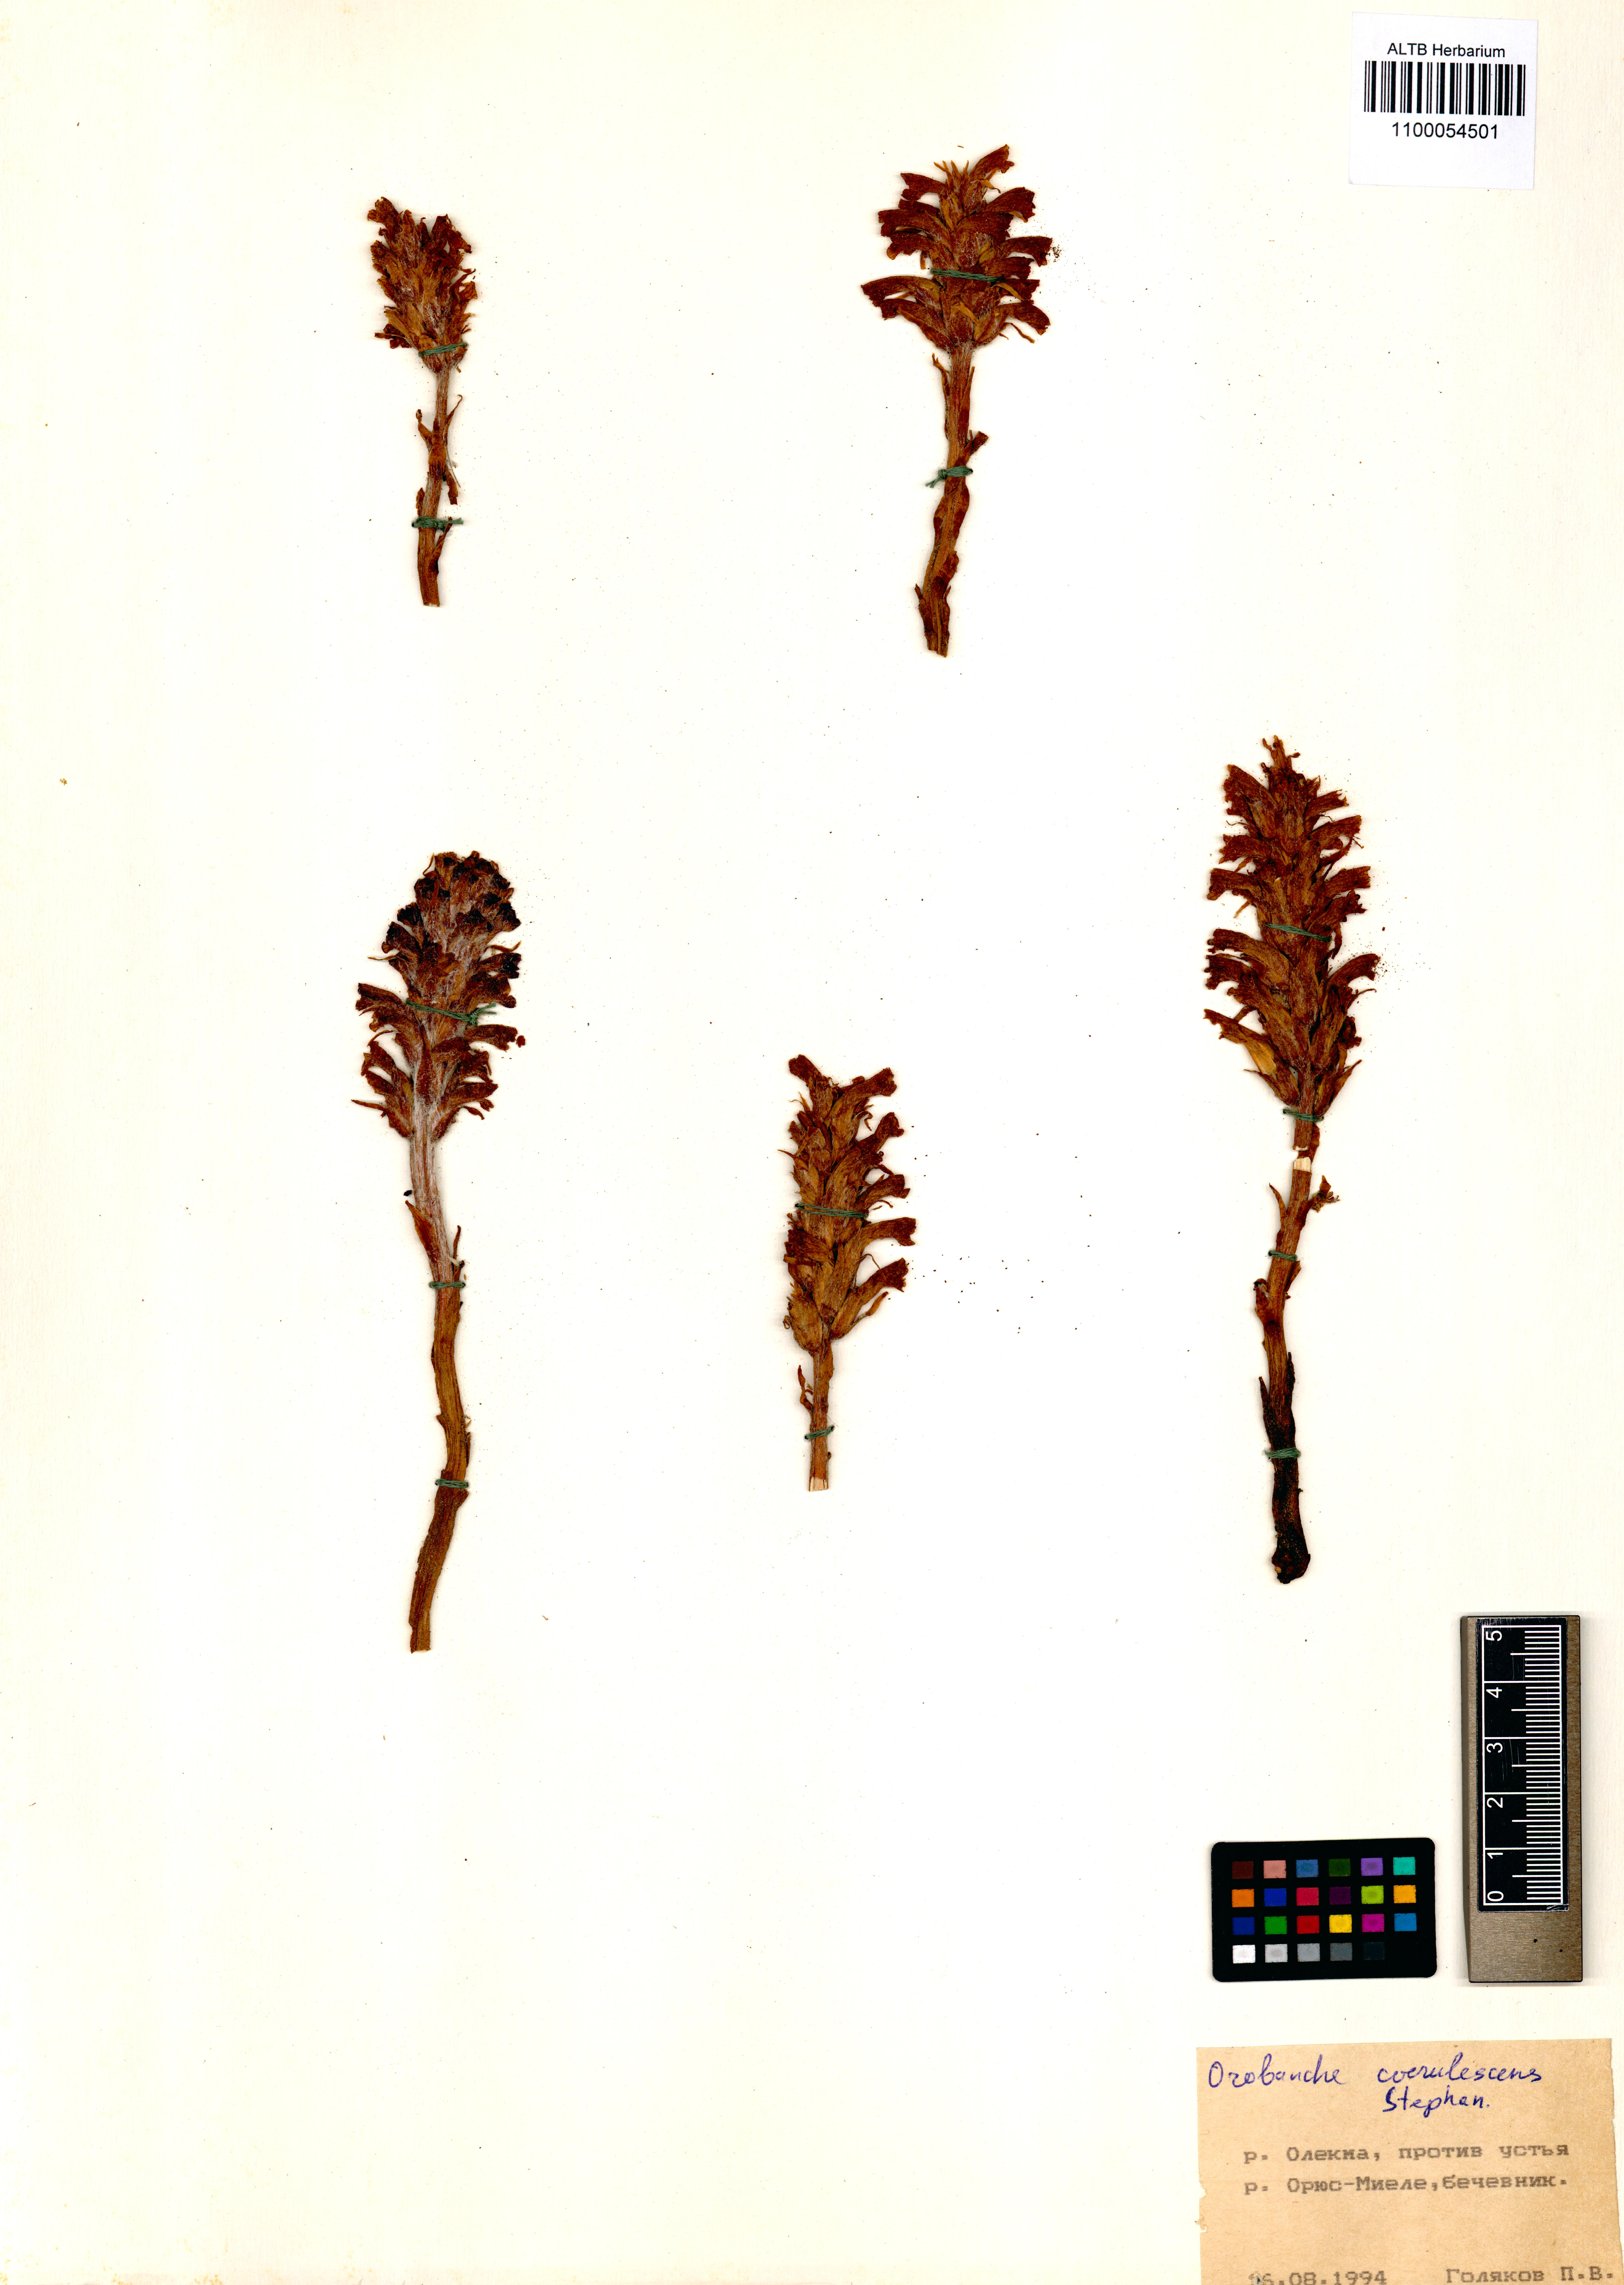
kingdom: Plantae
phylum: Tracheophyta
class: Magnoliopsida
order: Lamiales
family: Orobanchaceae
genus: Orobanche
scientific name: Orobanche coerulescens
